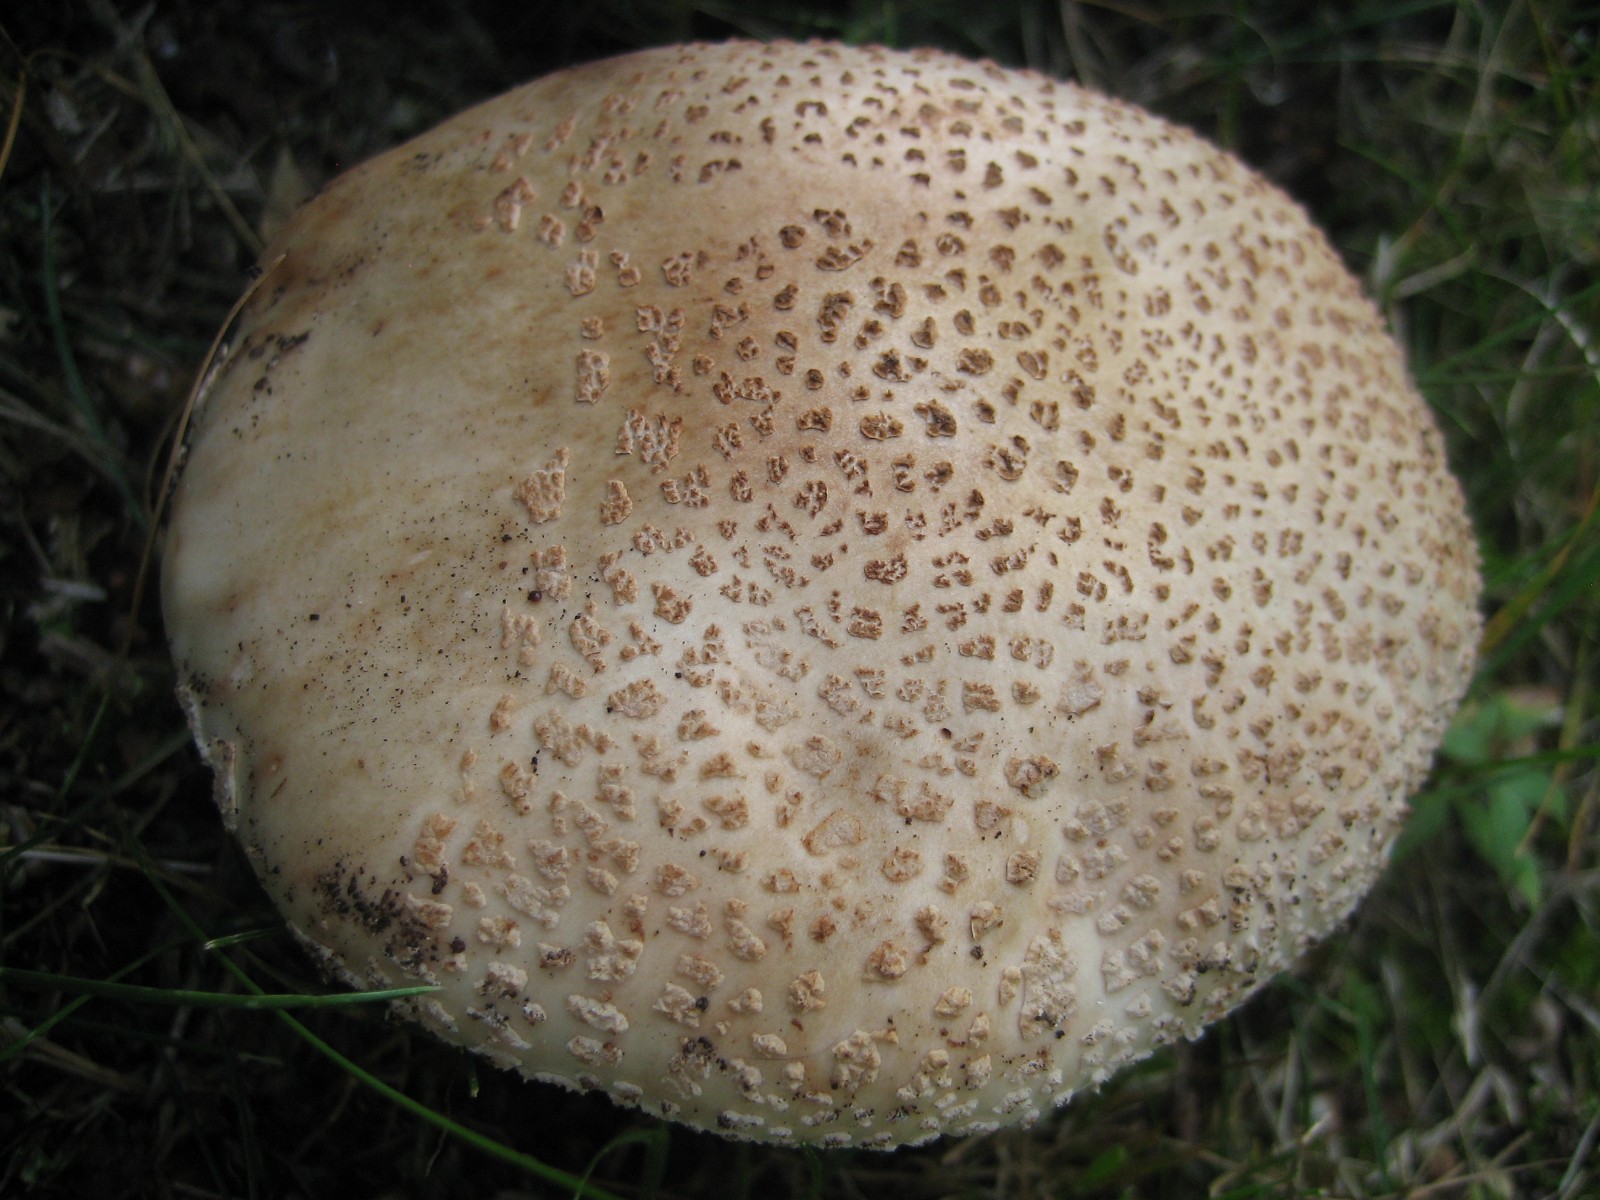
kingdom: Fungi
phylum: Basidiomycota
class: Agaricomycetes
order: Agaricales
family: Amanitaceae
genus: Amanita
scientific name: Amanita rubescens
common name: rødmende fluesvamp
